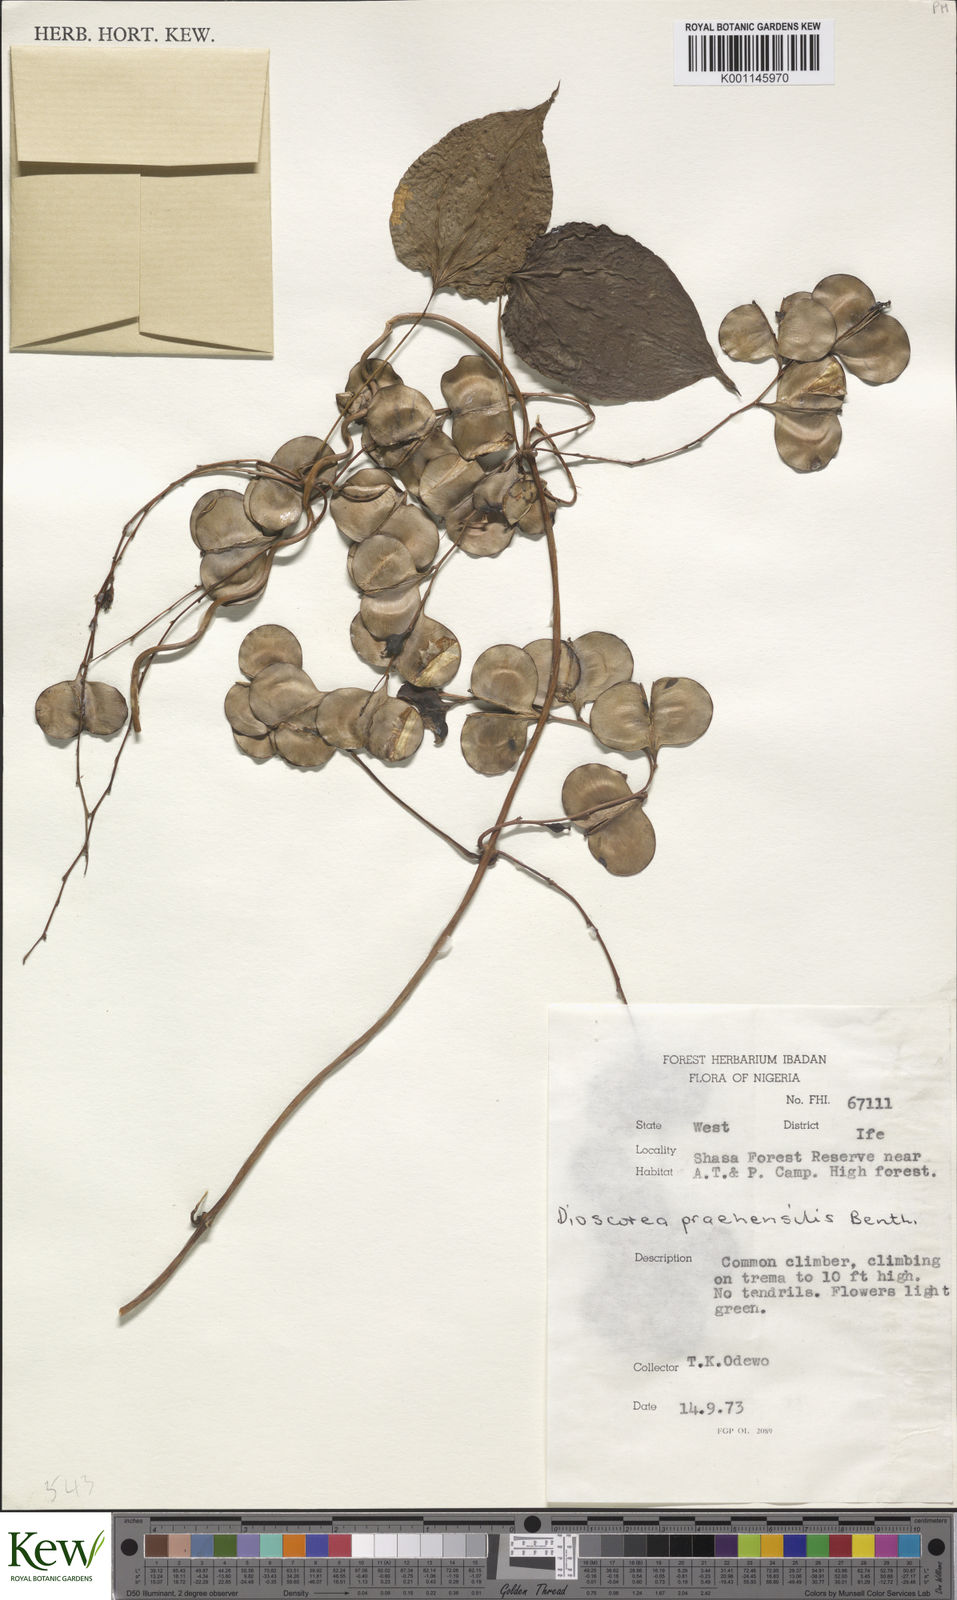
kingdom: Plantae
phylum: Tracheophyta
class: Liliopsida
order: Dioscoreales
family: Dioscoreaceae
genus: Dioscorea
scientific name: Dioscorea
